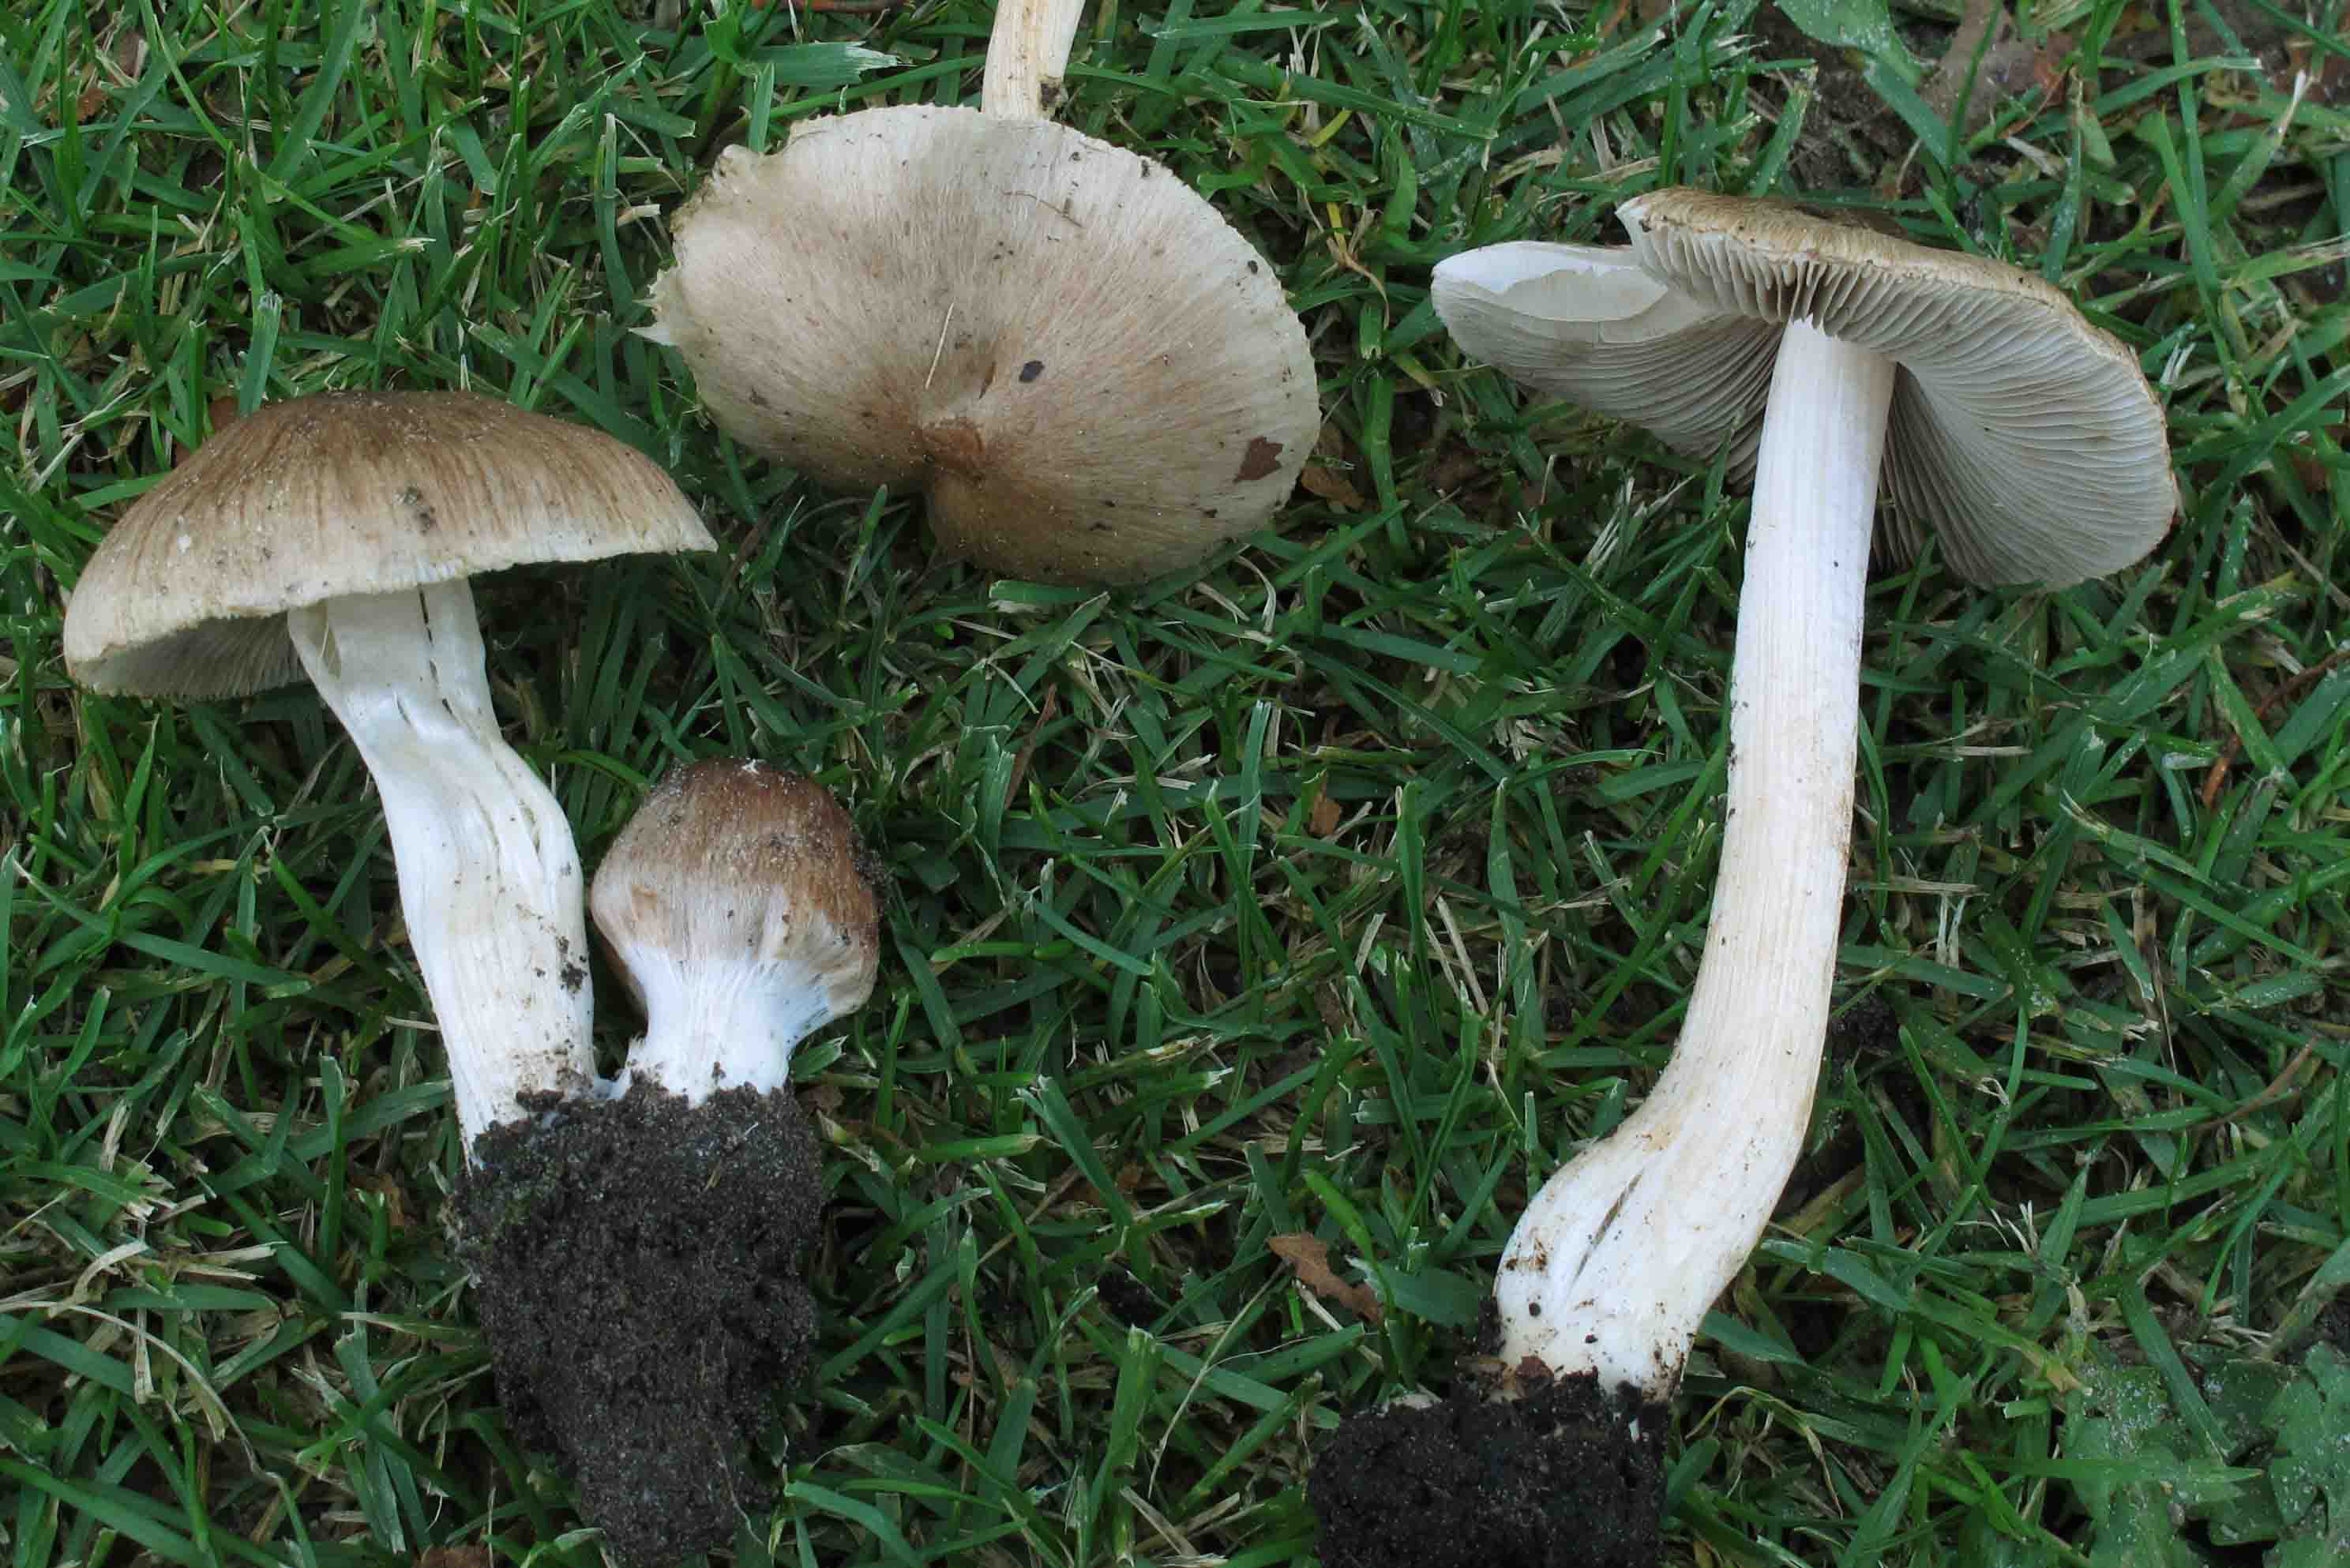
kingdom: Fungi
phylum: Basidiomycota
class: Agaricomycetes
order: Agaricales
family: Inocybaceae
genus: Inocybe
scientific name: Inocybe
